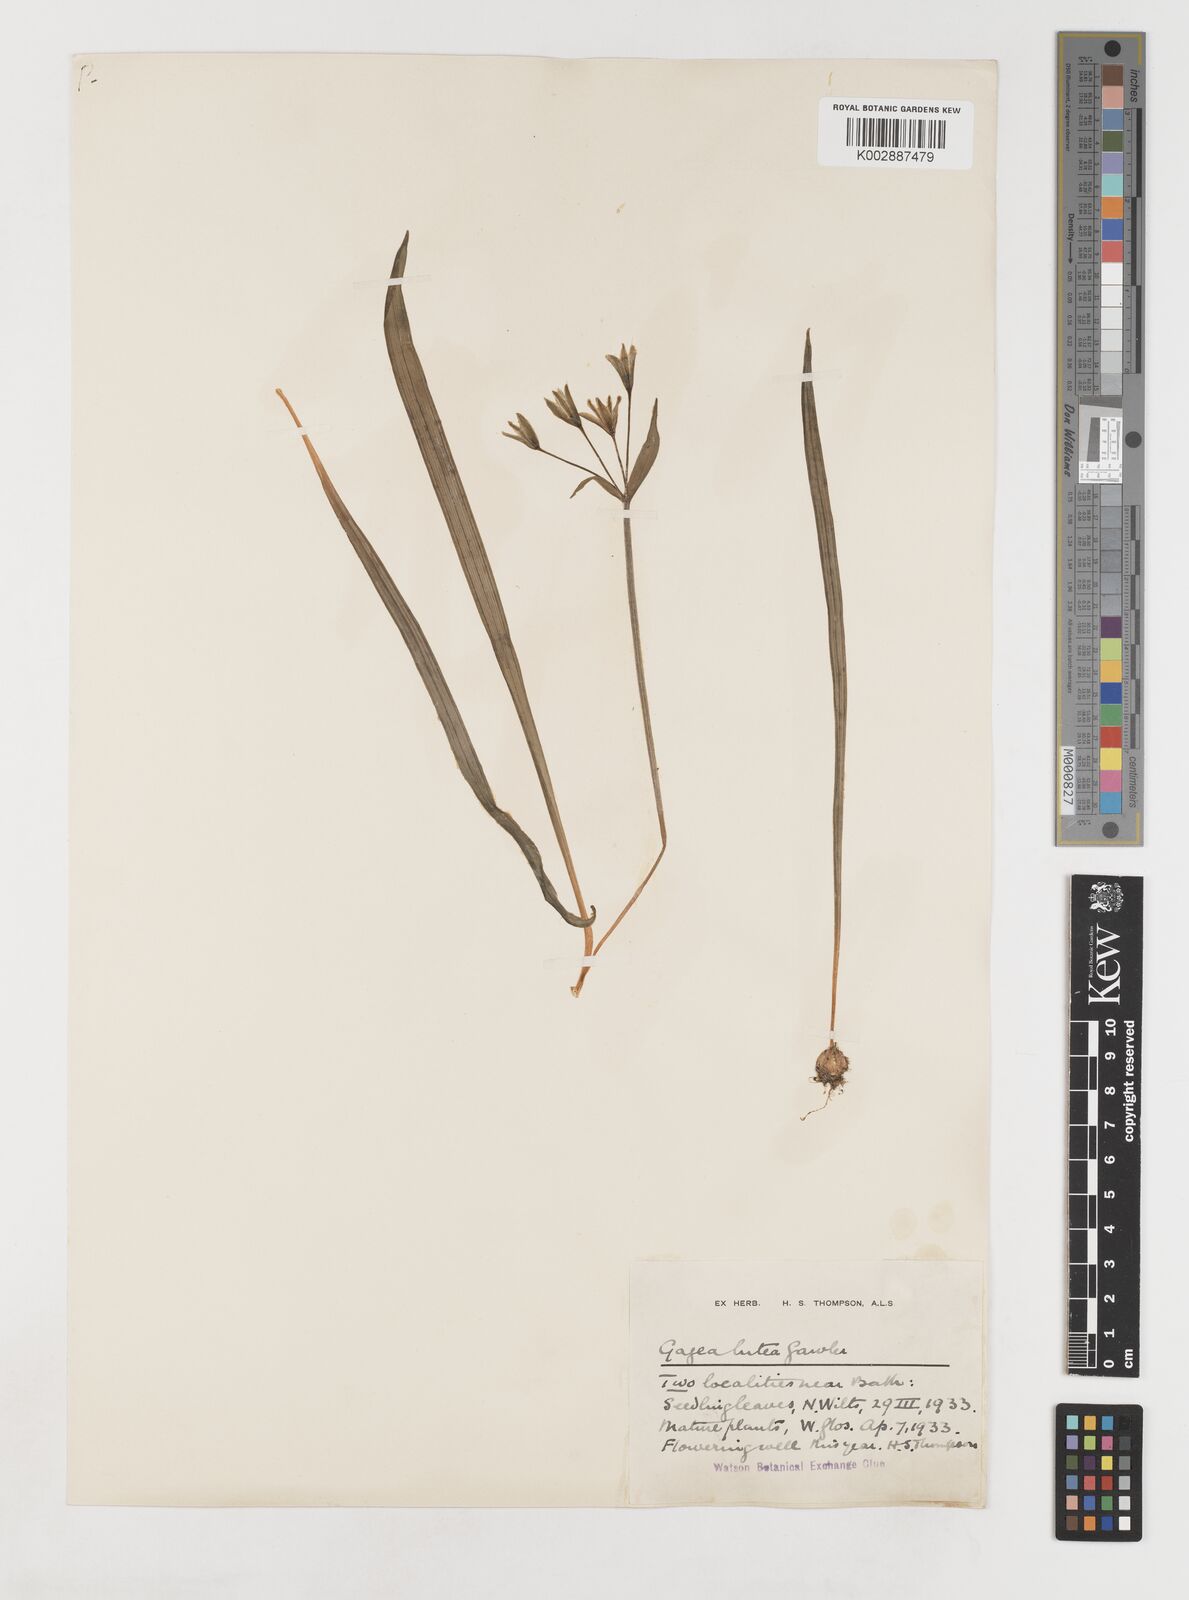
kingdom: Plantae
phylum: Tracheophyta
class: Liliopsida
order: Liliales
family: Liliaceae
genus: Gagea
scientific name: Gagea lutea
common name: Yellow star-of-bethlehem
